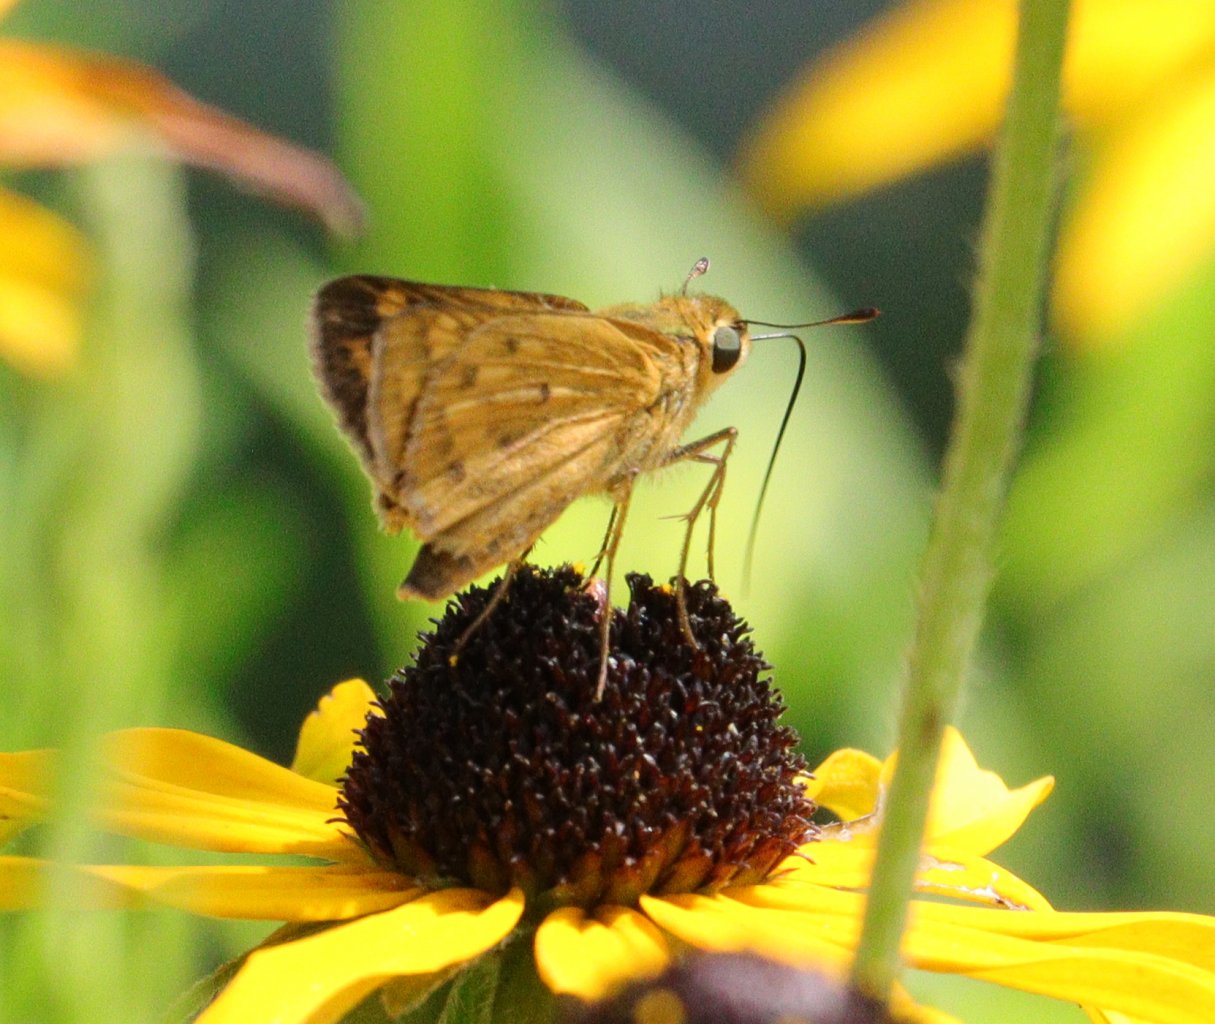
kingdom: Animalia
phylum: Arthropoda
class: Insecta
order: Lepidoptera
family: Hesperiidae
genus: Hylephila
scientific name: Hylephila phyleus
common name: Fiery Skipper
